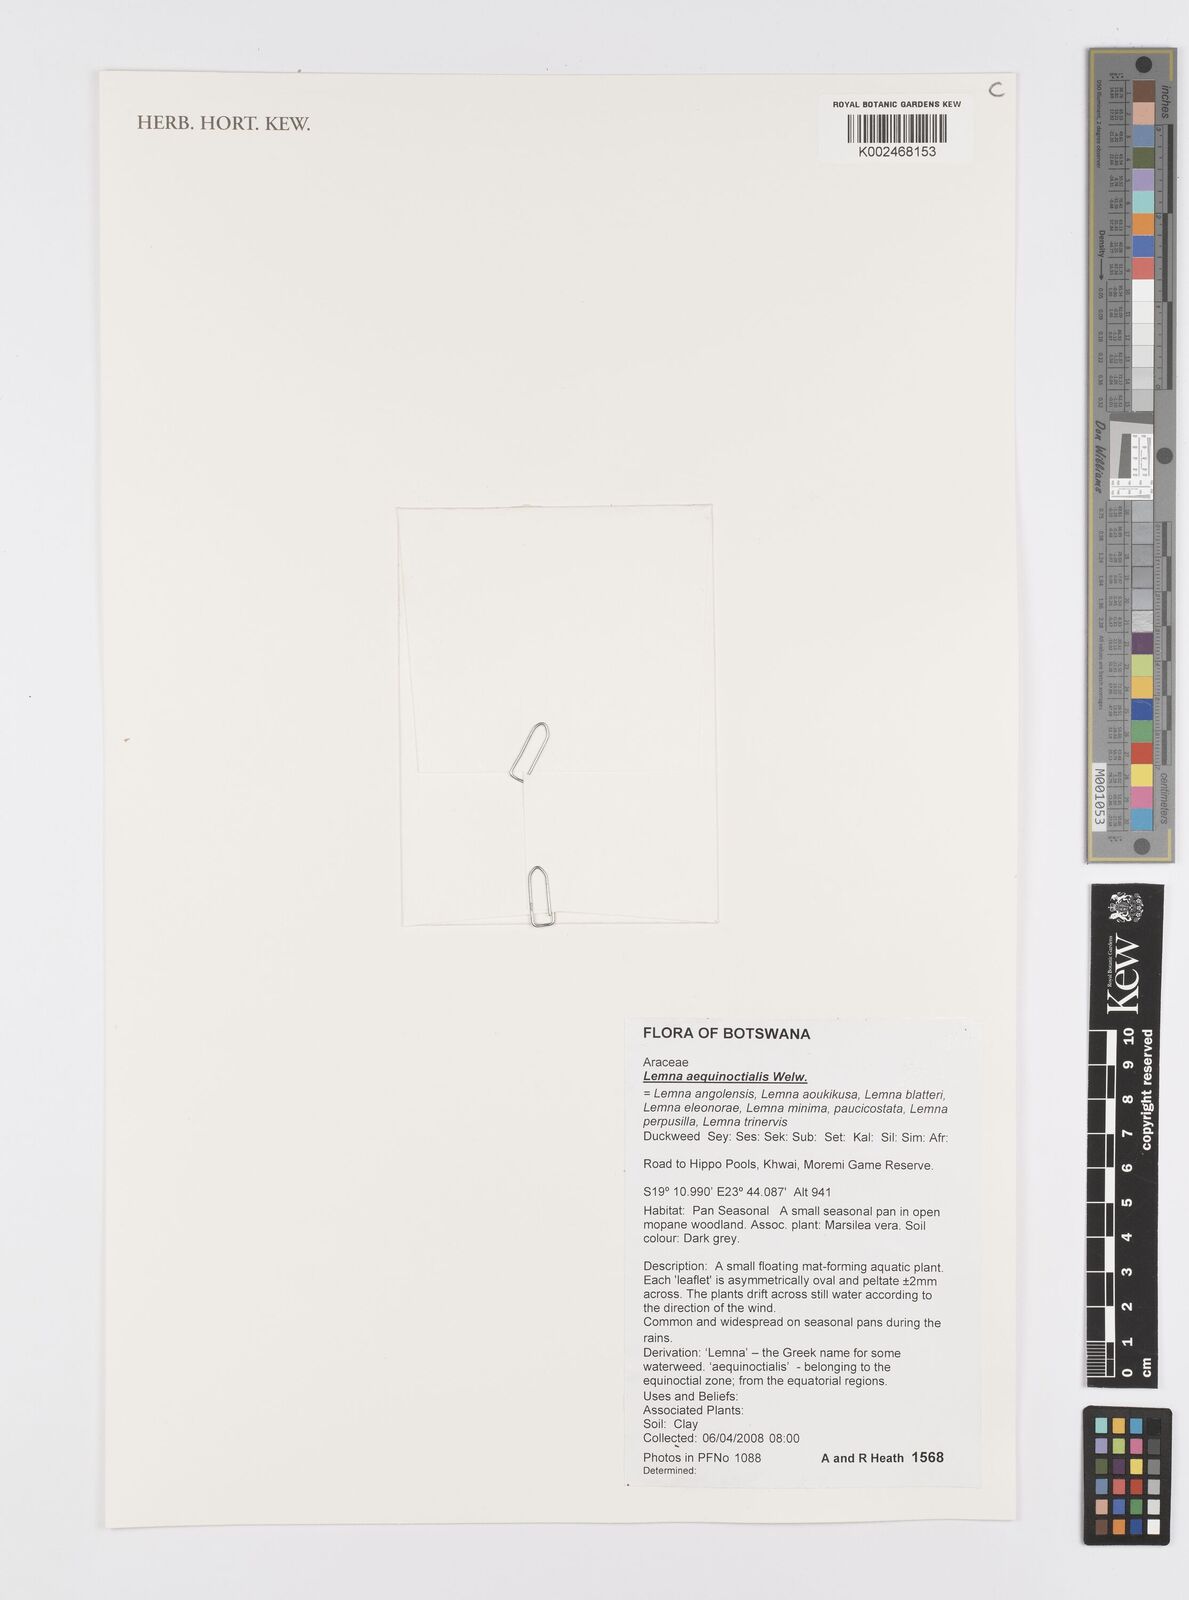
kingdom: Plantae
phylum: Tracheophyta
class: Liliopsida
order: Alismatales
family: Araceae
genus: Lemna
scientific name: Lemna aequinoctialis
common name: Duckweed
